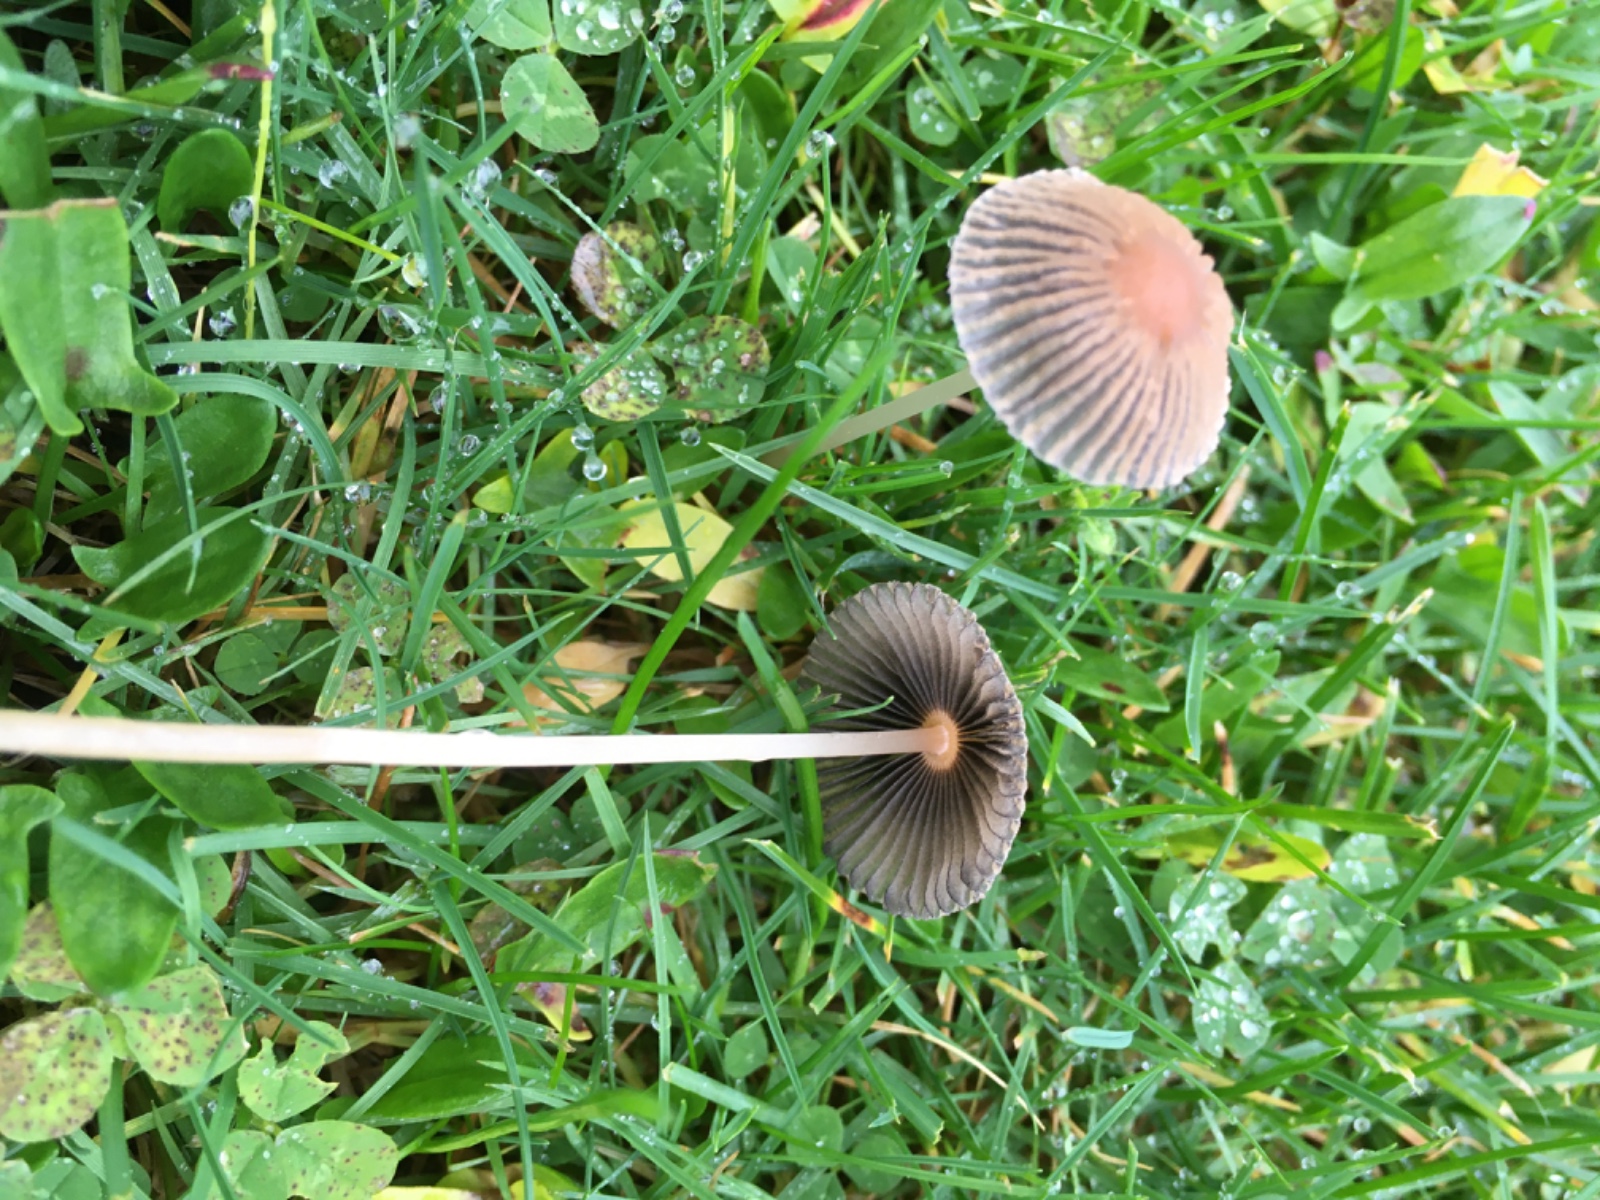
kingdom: Fungi
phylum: Basidiomycota
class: Agaricomycetes
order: Agaricales
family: Psathyrellaceae
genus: Parasola
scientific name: Parasola schroeteri
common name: bredsporet hjulhat
